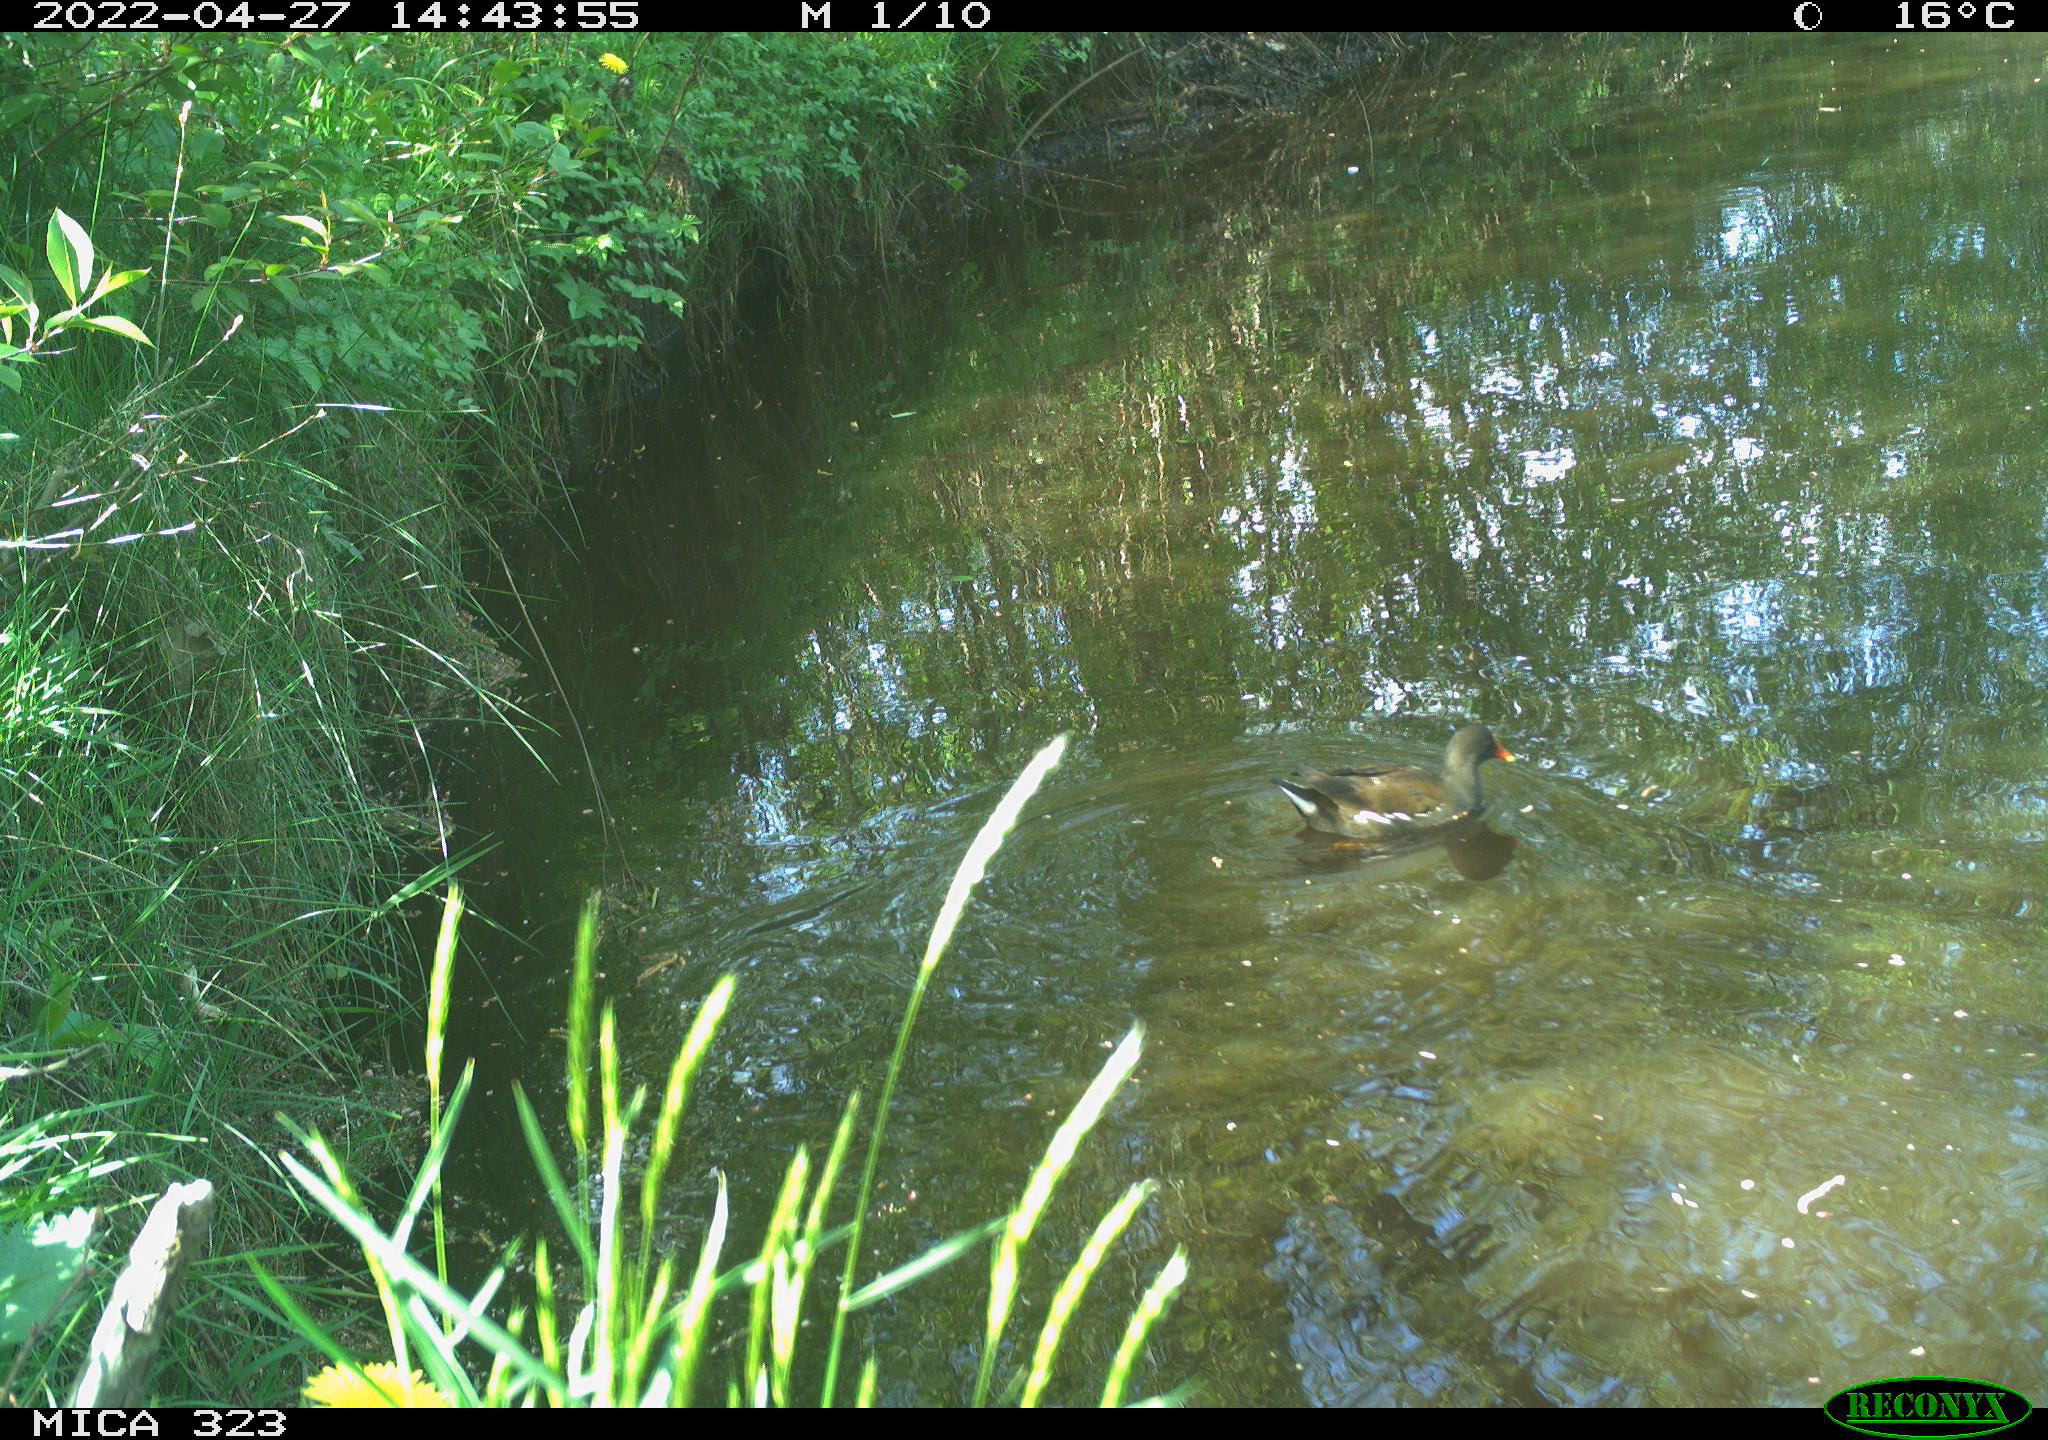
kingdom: Animalia
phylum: Chordata
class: Aves
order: Gruiformes
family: Rallidae
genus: Gallinula
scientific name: Gallinula chloropus
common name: Common moorhen
